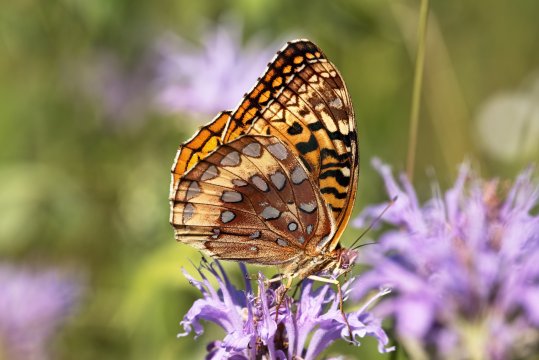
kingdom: Animalia
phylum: Arthropoda
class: Insecta
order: Lepidoptera
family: Nymphalidae
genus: Speyeria
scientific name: Speyeria cybele
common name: Great Spangled Fritillary
